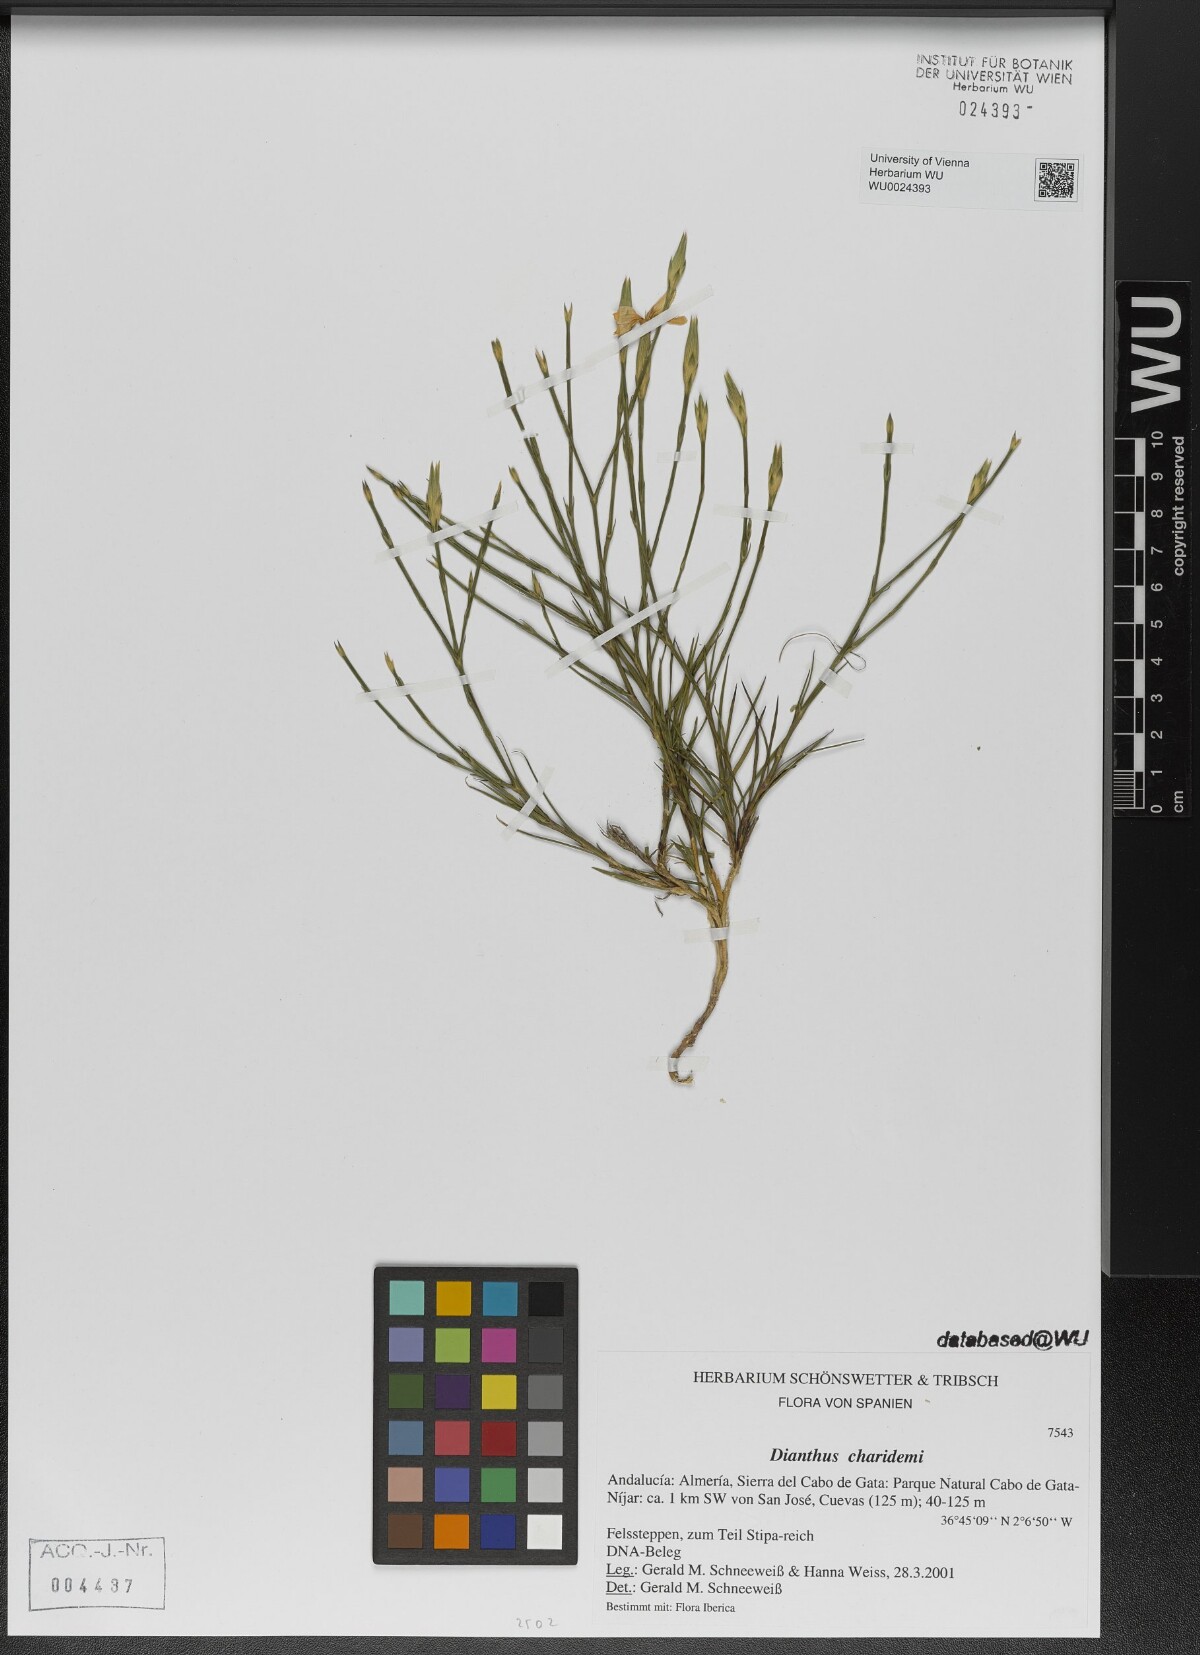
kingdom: Plantae
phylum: Tracheophyta
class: Magnoliopsida
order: Caryophyllales
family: Caryophyllaceae
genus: Dianthus
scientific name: Dianthus charidemi
